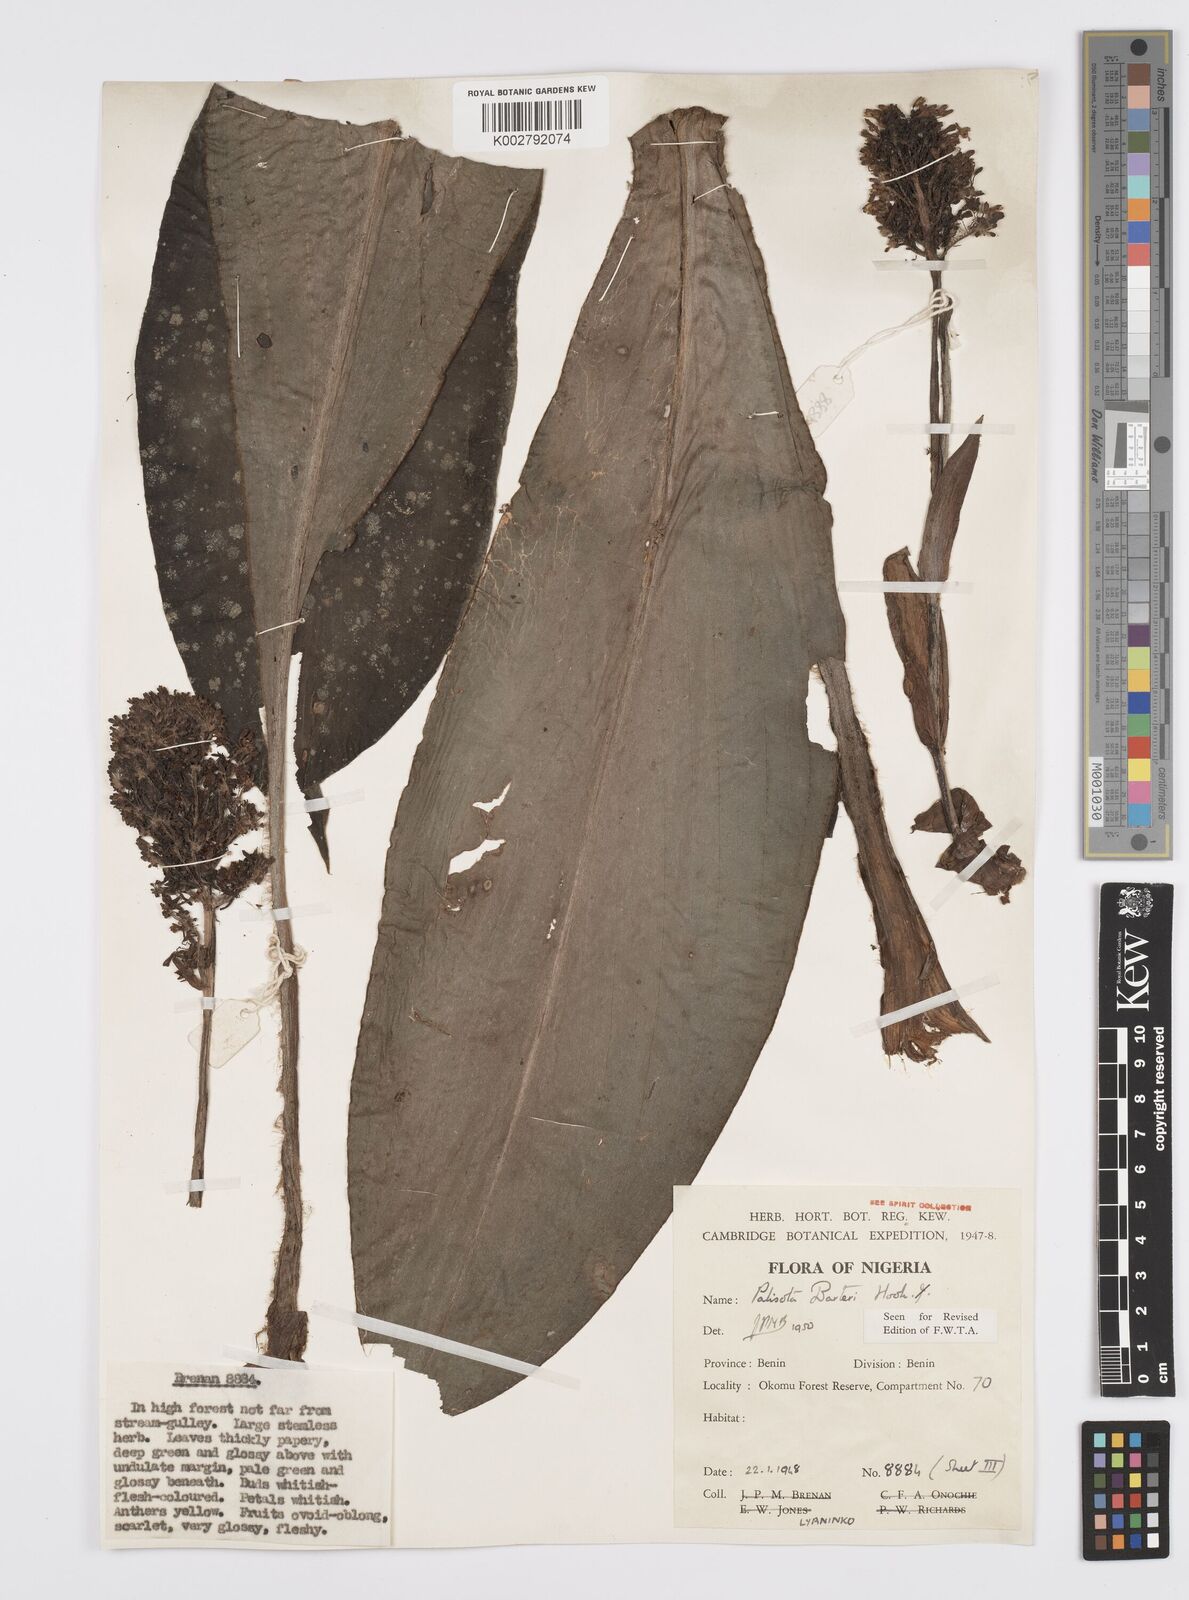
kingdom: Plantae
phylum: Tracheophyta
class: Liliopsida
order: Commelinales
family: Commelinaceae
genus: Palisota
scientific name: Palisota barteri
